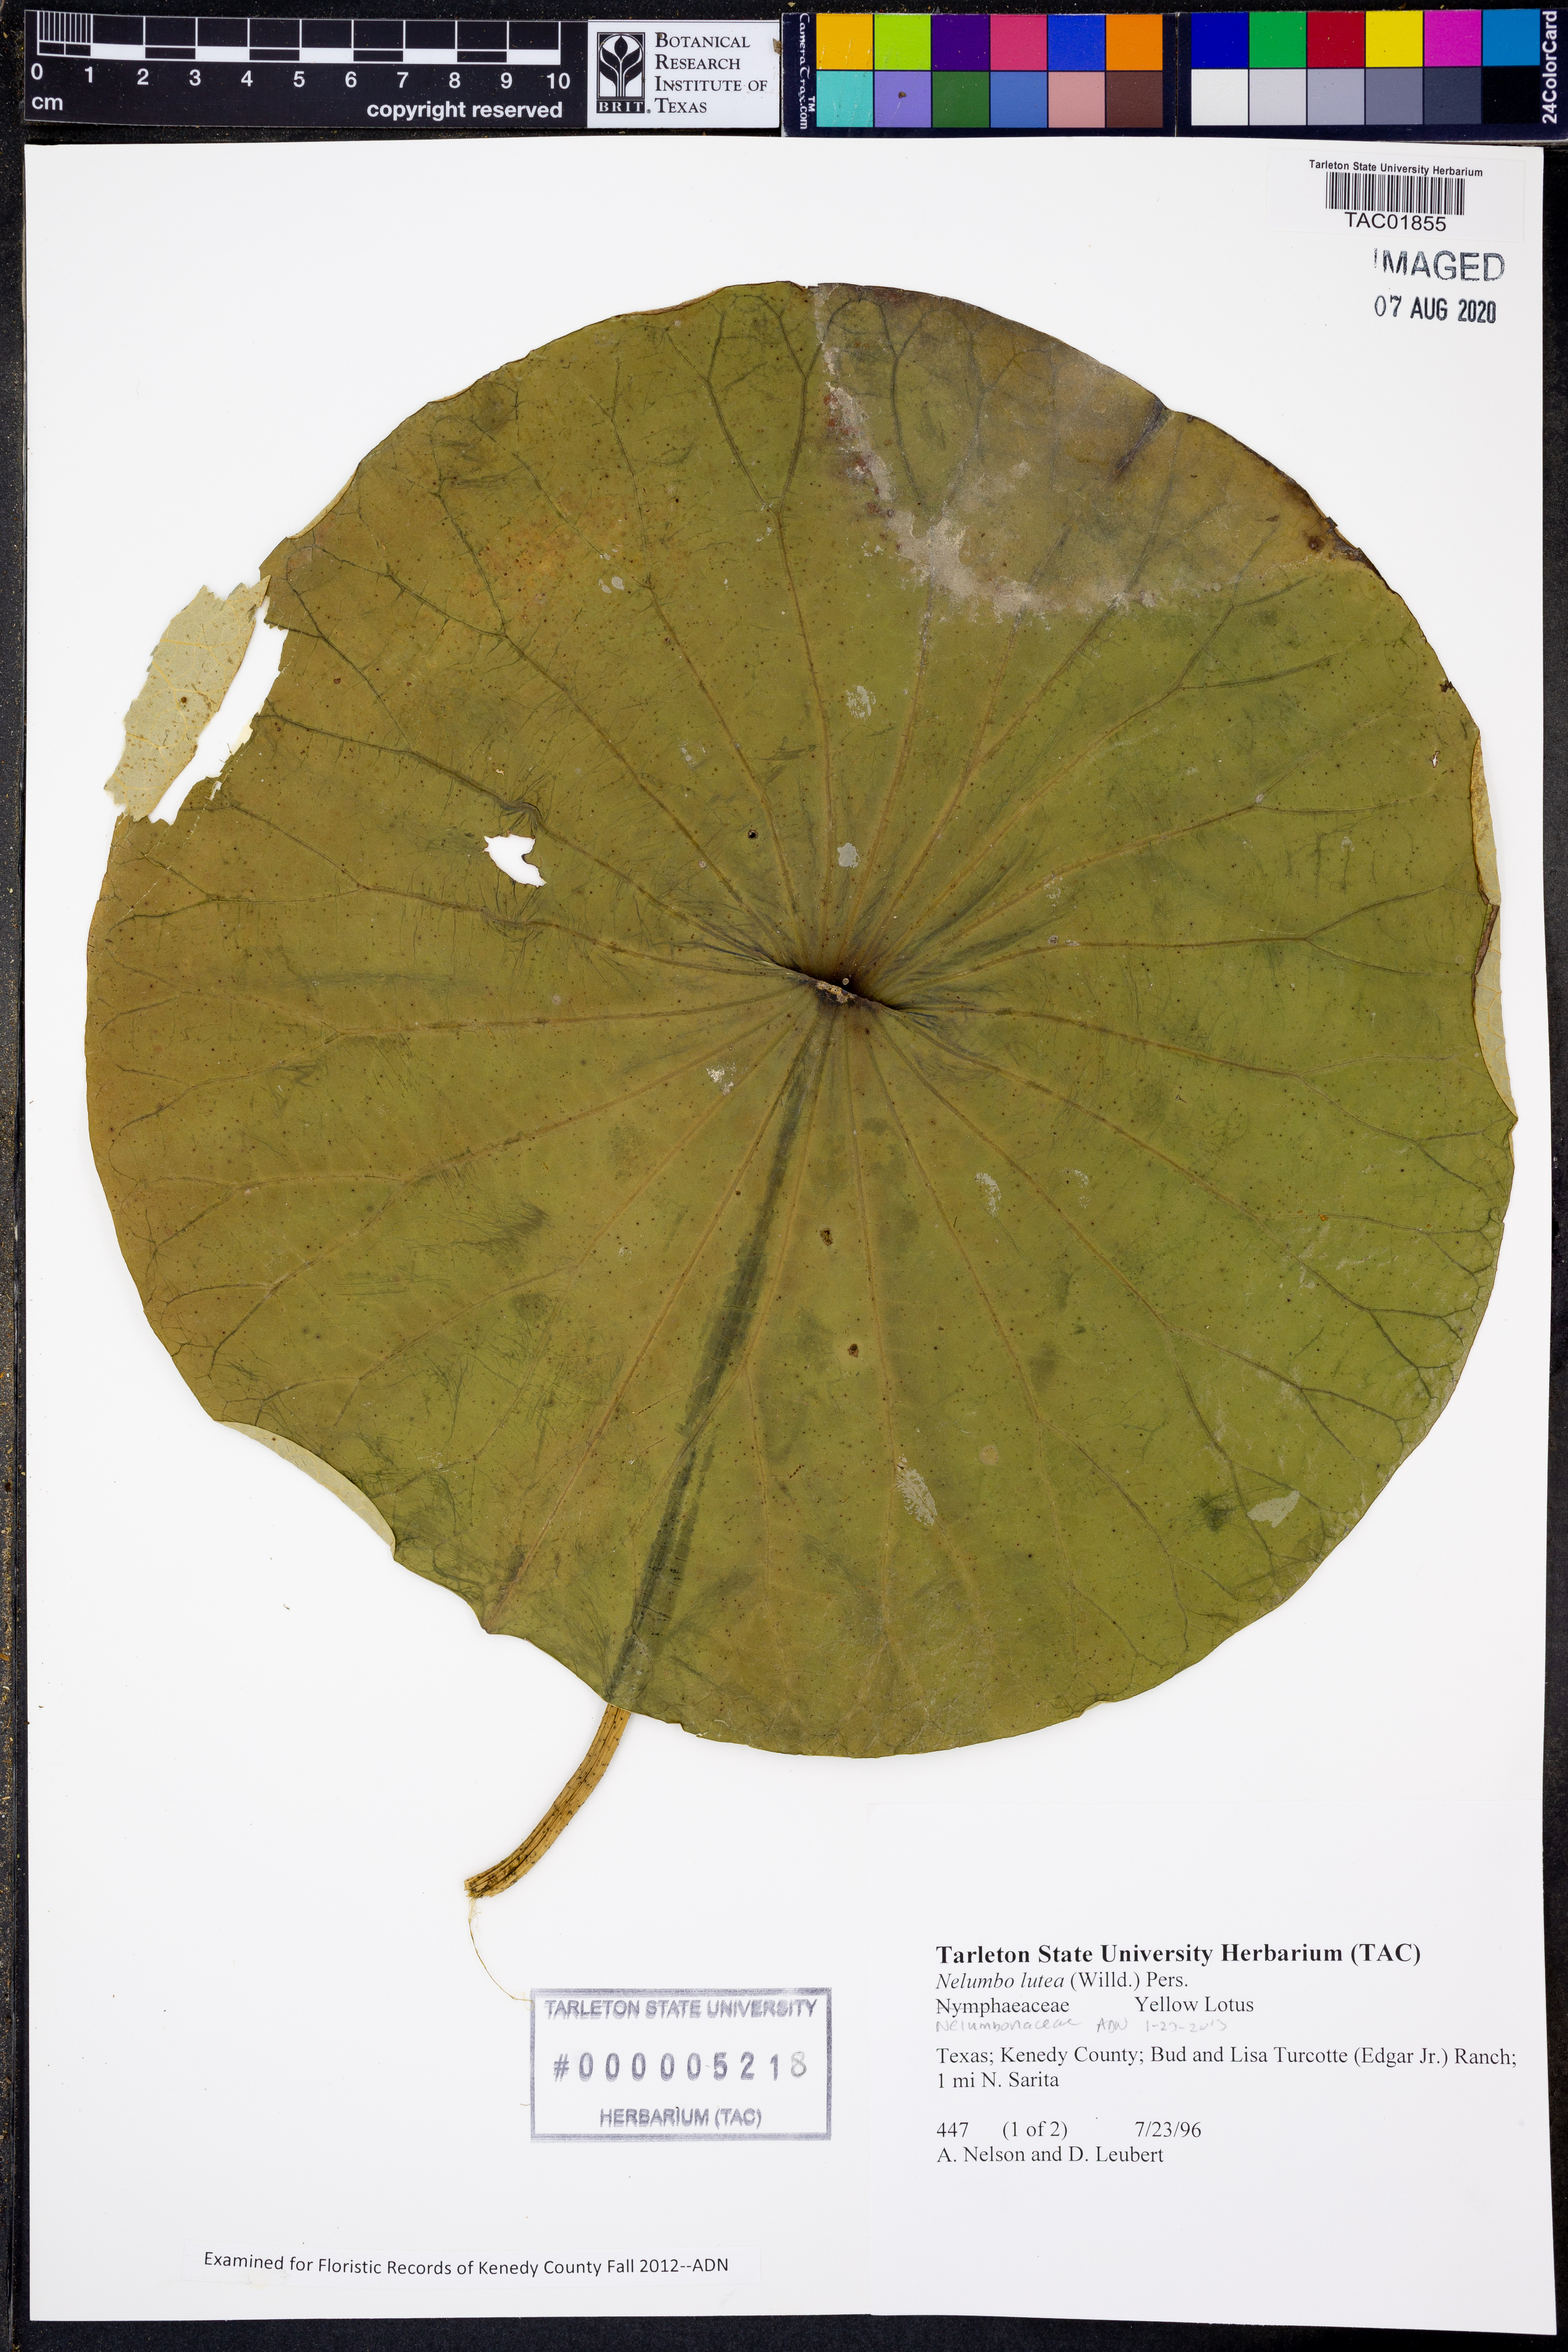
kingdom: Plantae
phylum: Tracheophyta
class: Magnoliopsida
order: Proteales
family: Nelumbonaceae
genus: Nelumbo
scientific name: Nelumbo lutea
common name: American lotus
